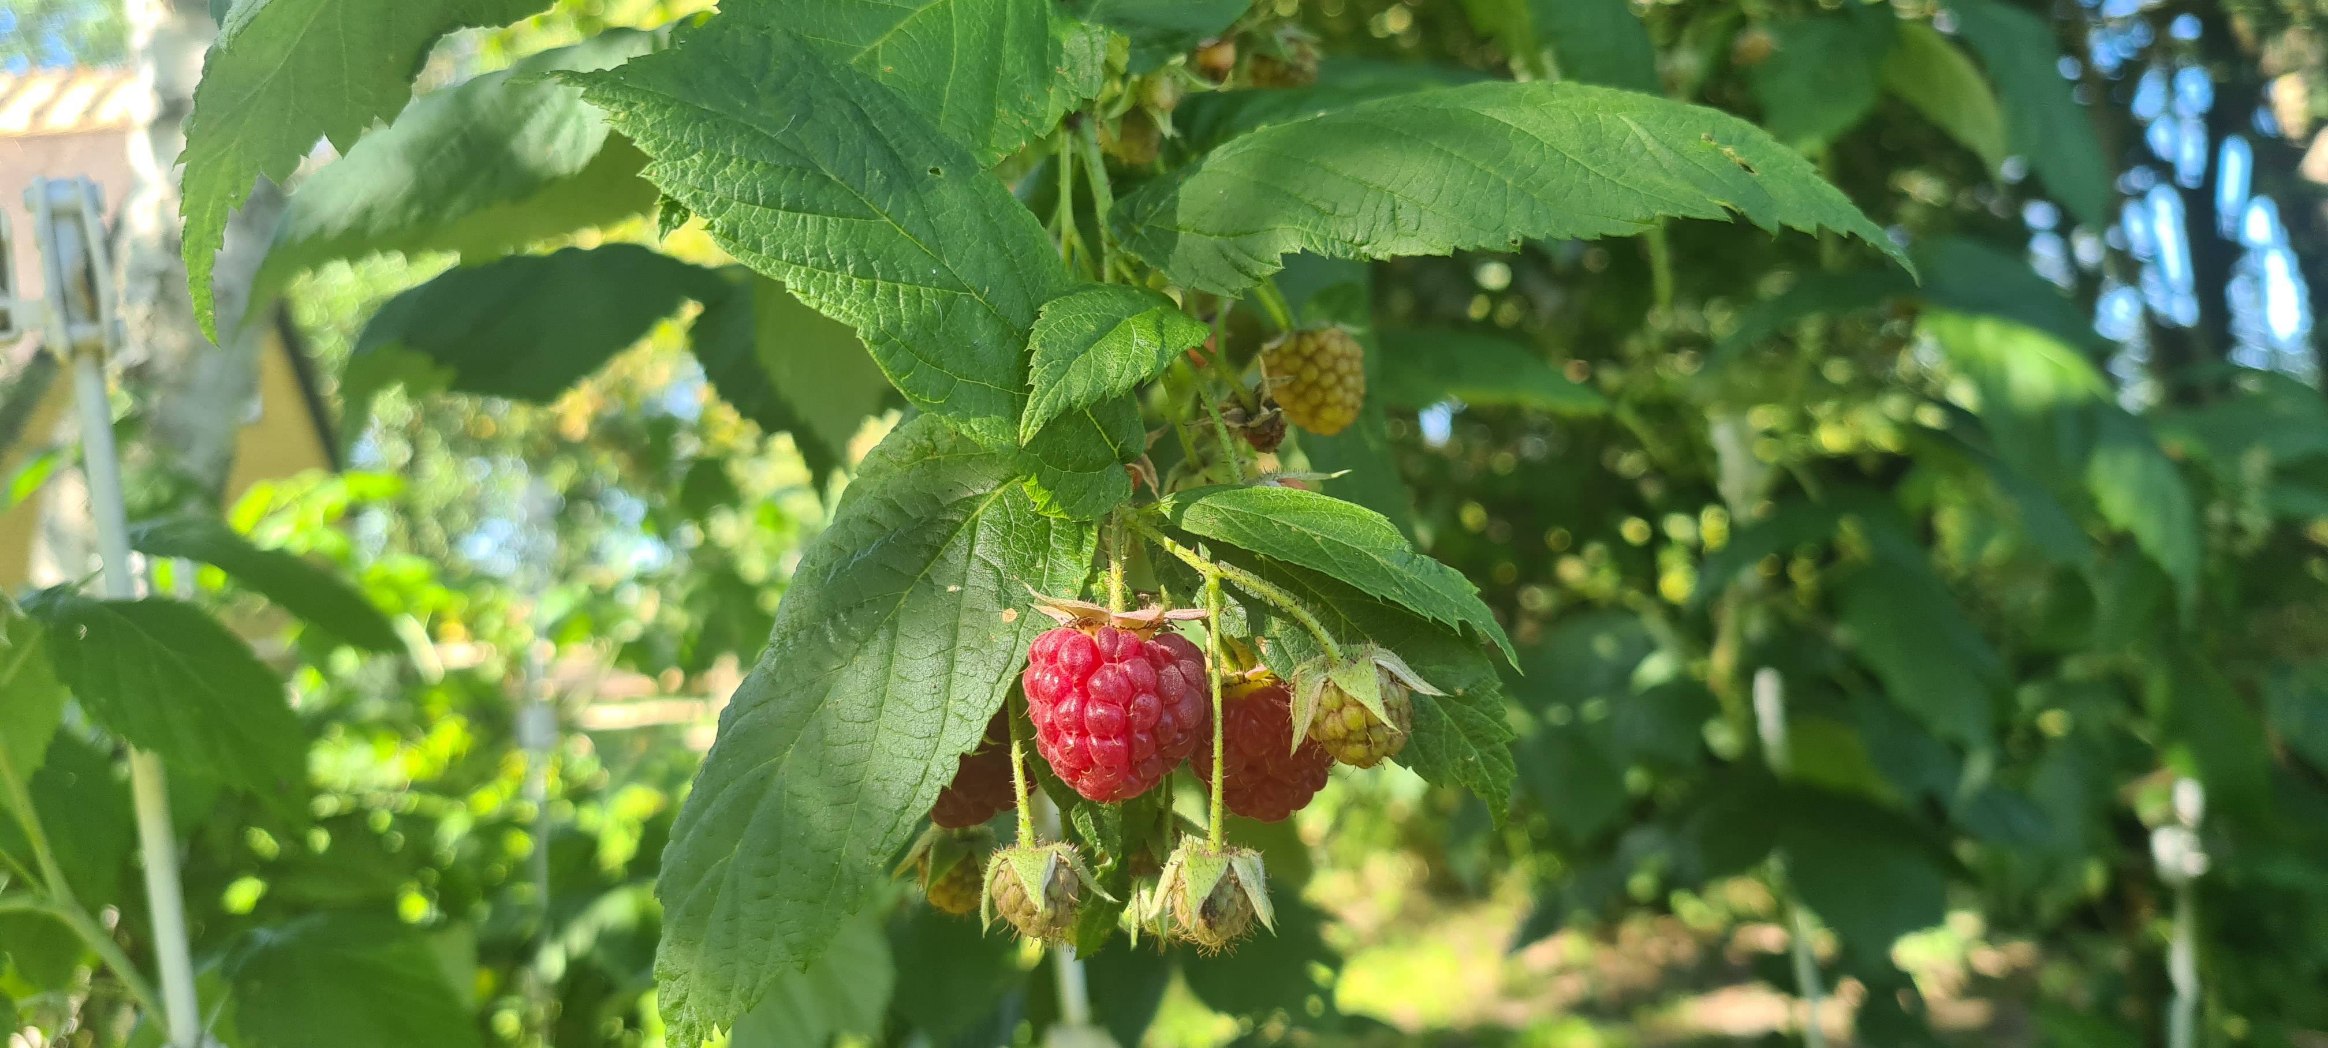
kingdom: Plantae
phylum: Tracheophyta
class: Magnoliopsida
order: Rosales
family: Rosaceae
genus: Rubus
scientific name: Rubus idaeus
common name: Hindbær
